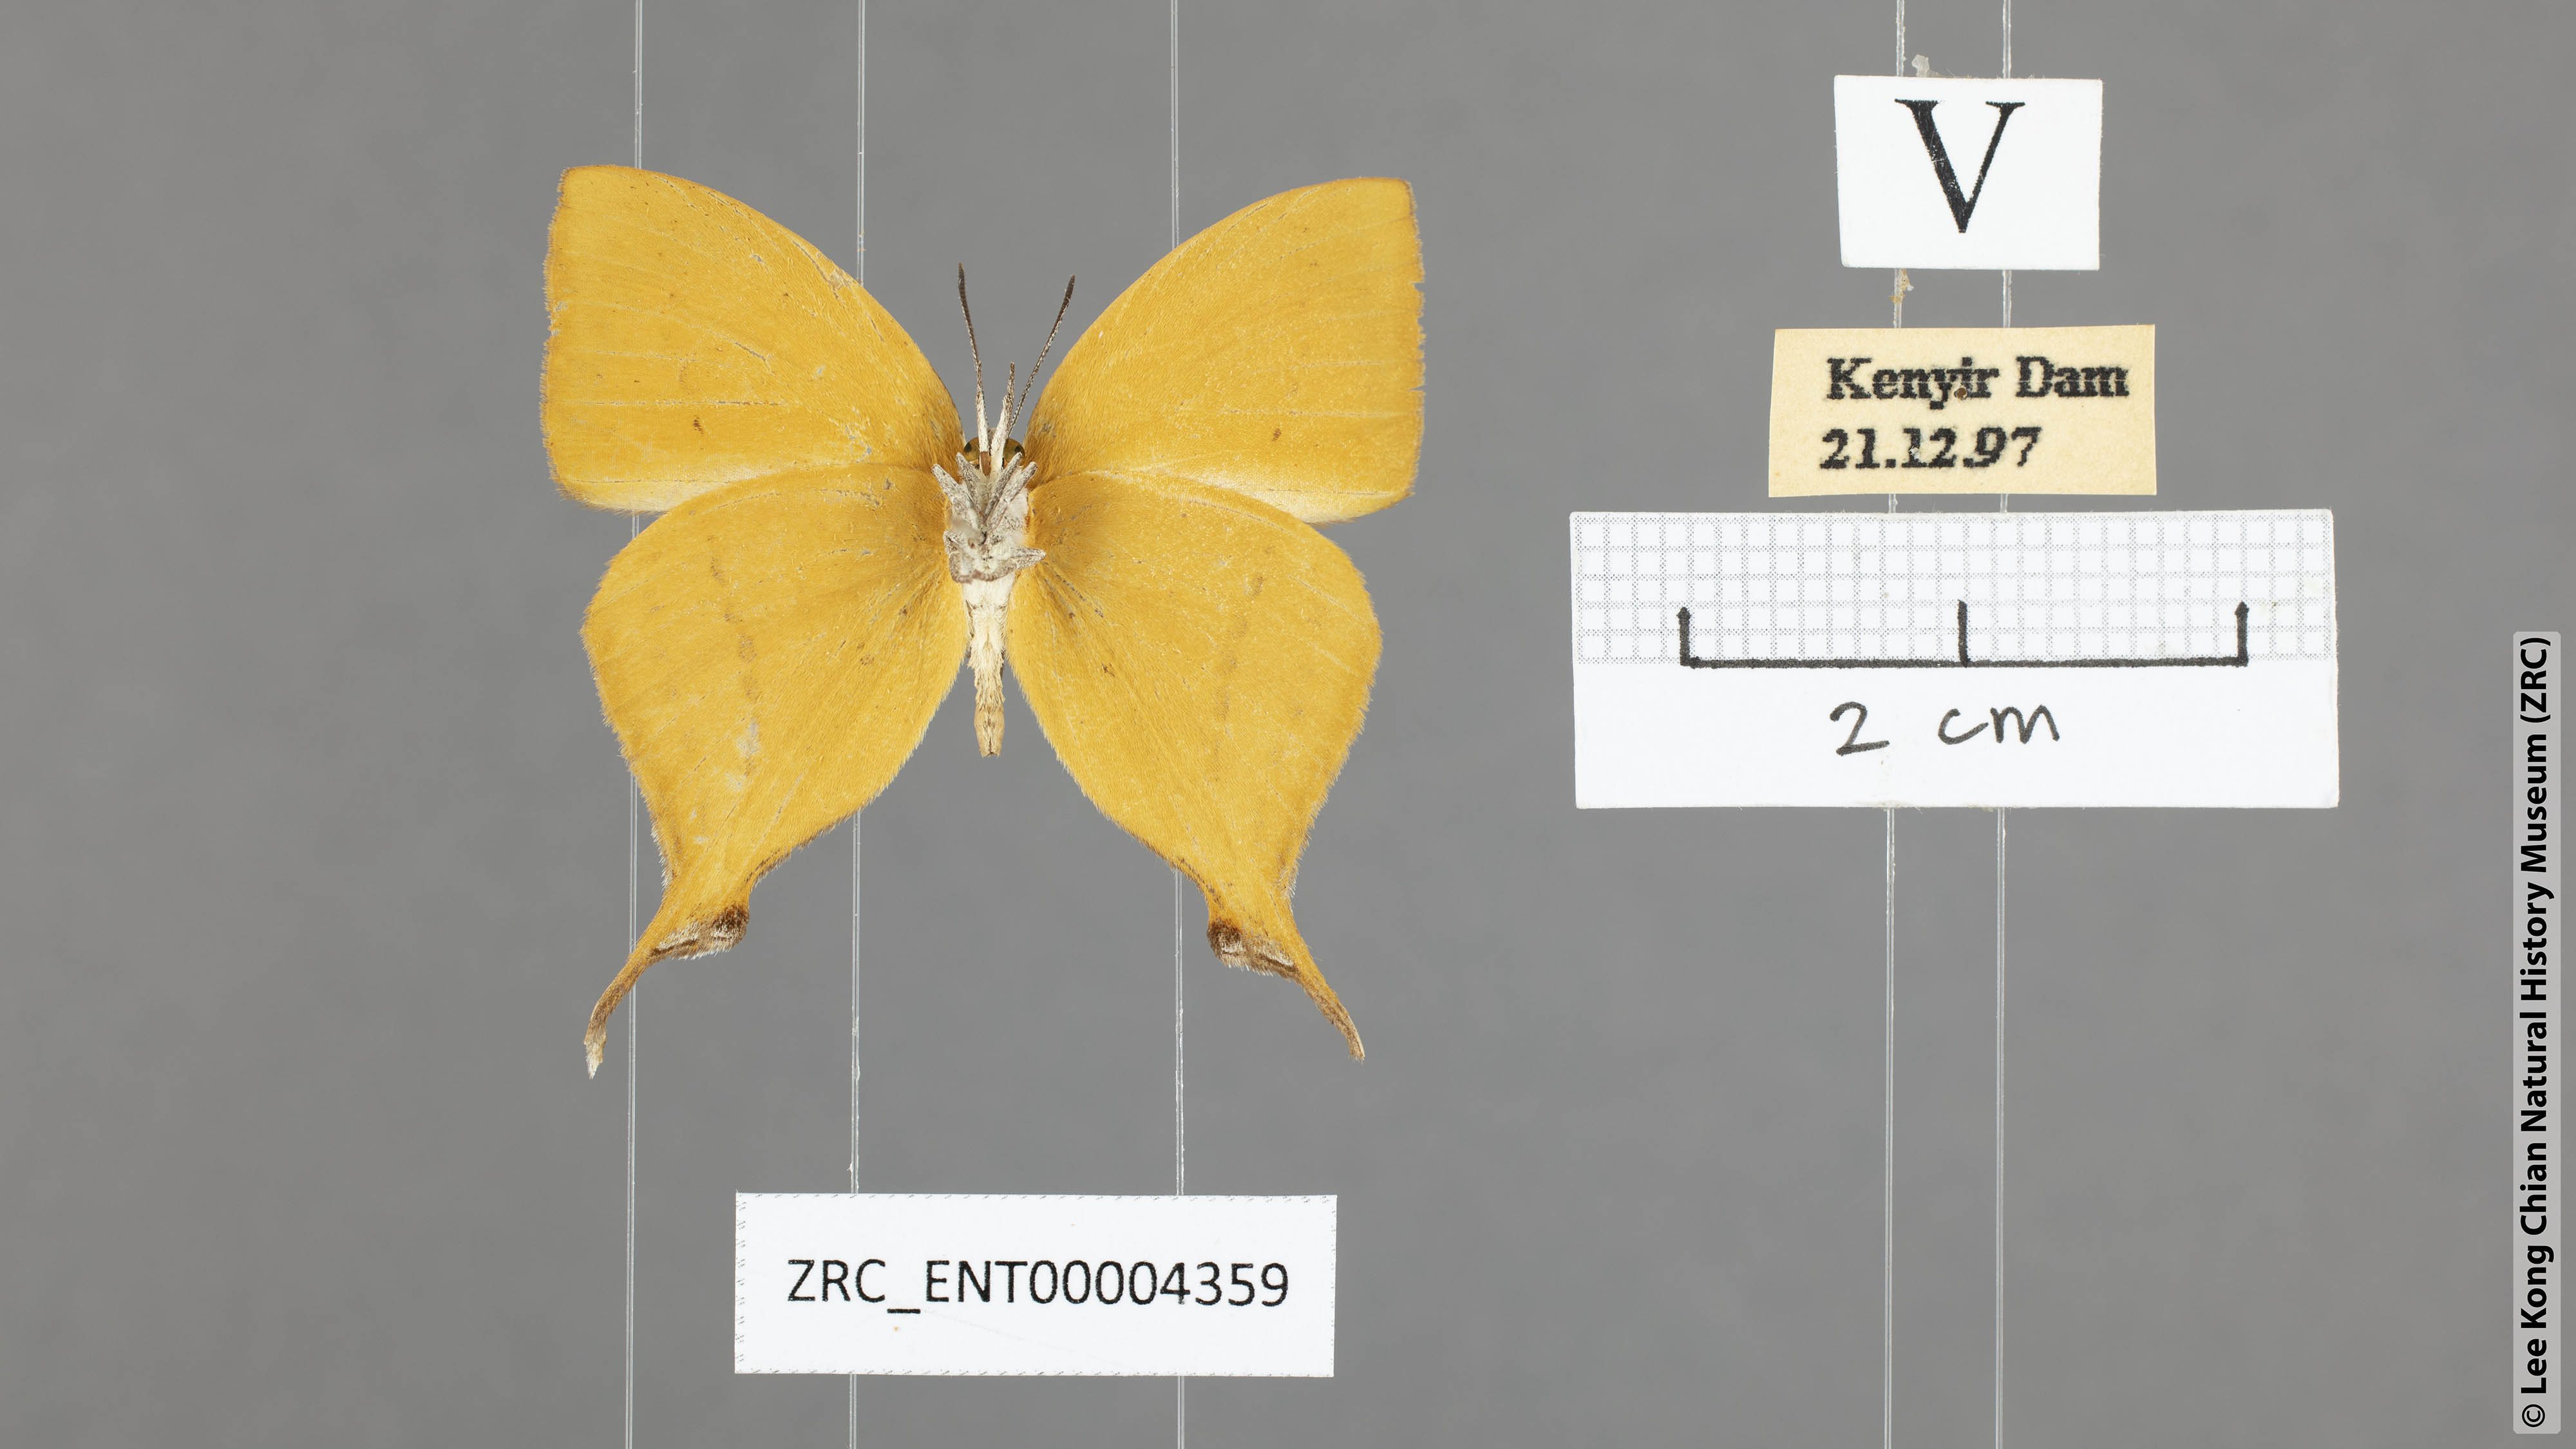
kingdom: Animalia
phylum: Arthropoda
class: Insecta
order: Lepidoptera
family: Lycaenidae
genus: Loxura
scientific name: Loxura atymnus
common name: Common yamfly
